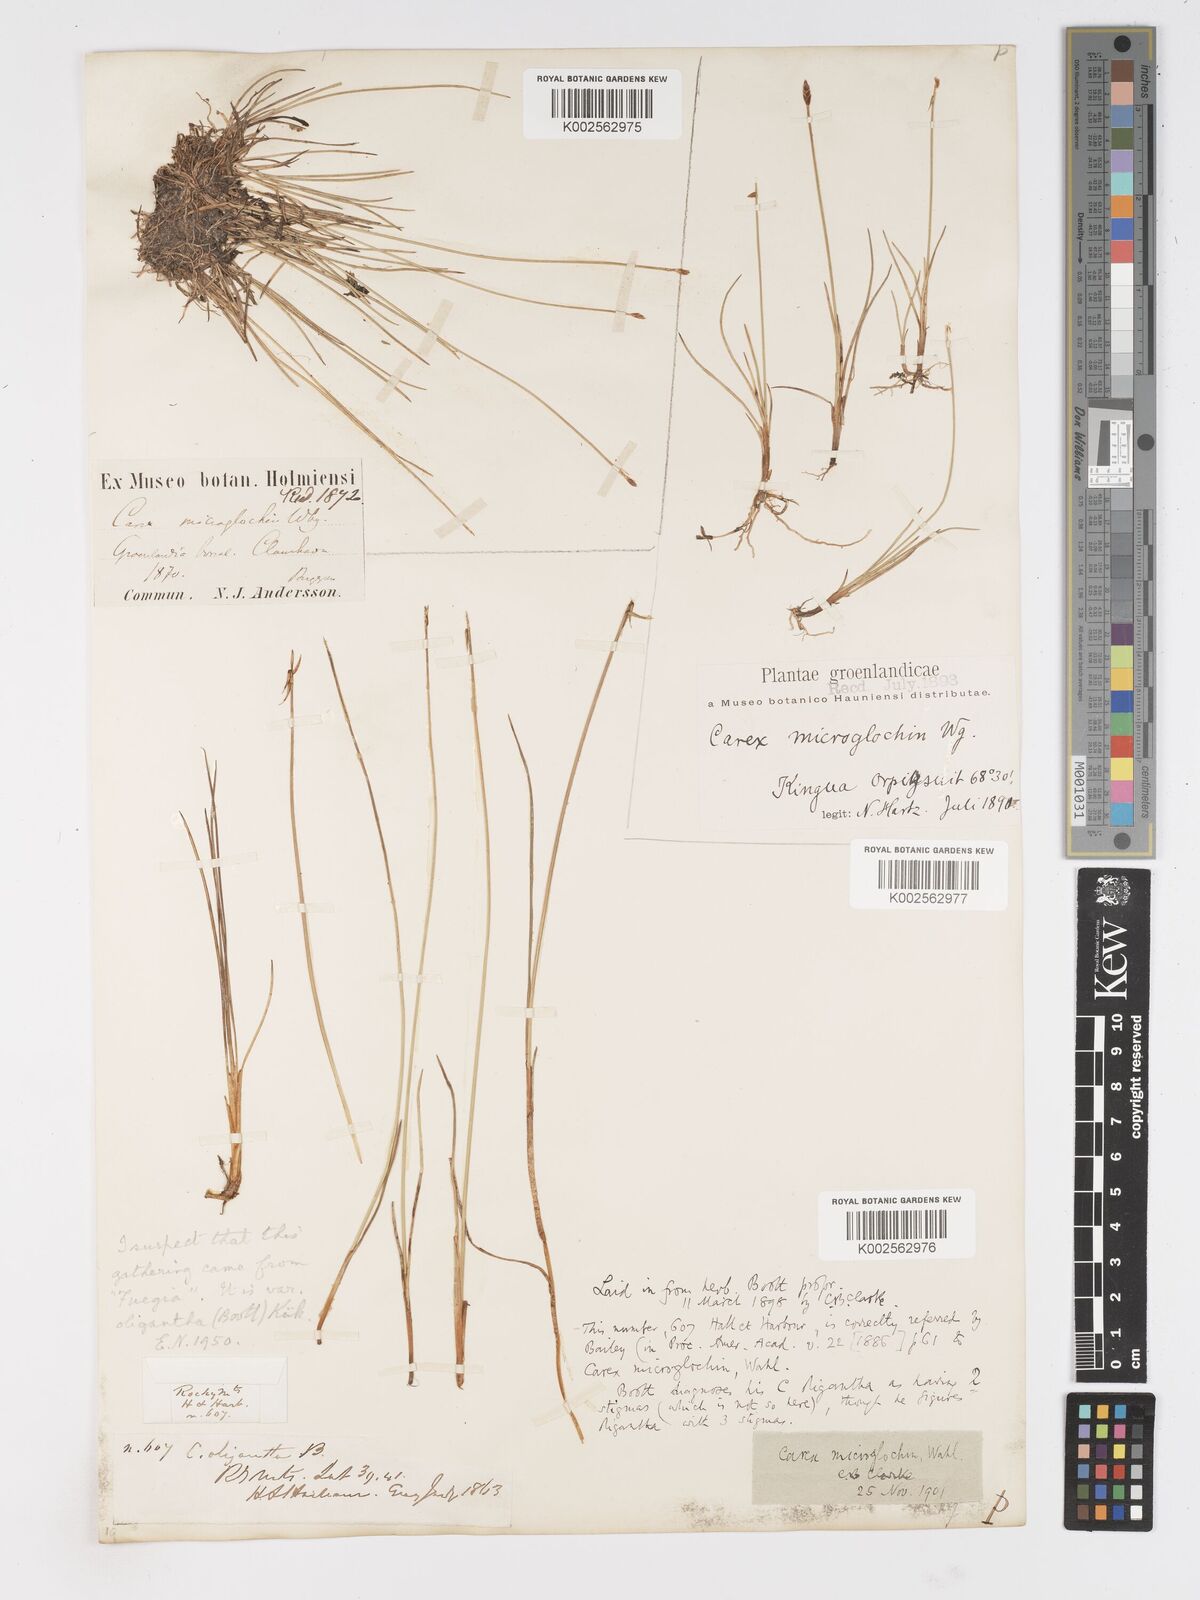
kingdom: Plantae
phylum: Tracheophyta
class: Liliopsida
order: Poales
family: Cyperaceae
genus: Carex
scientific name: Carex microglochin
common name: Bristle sedge
